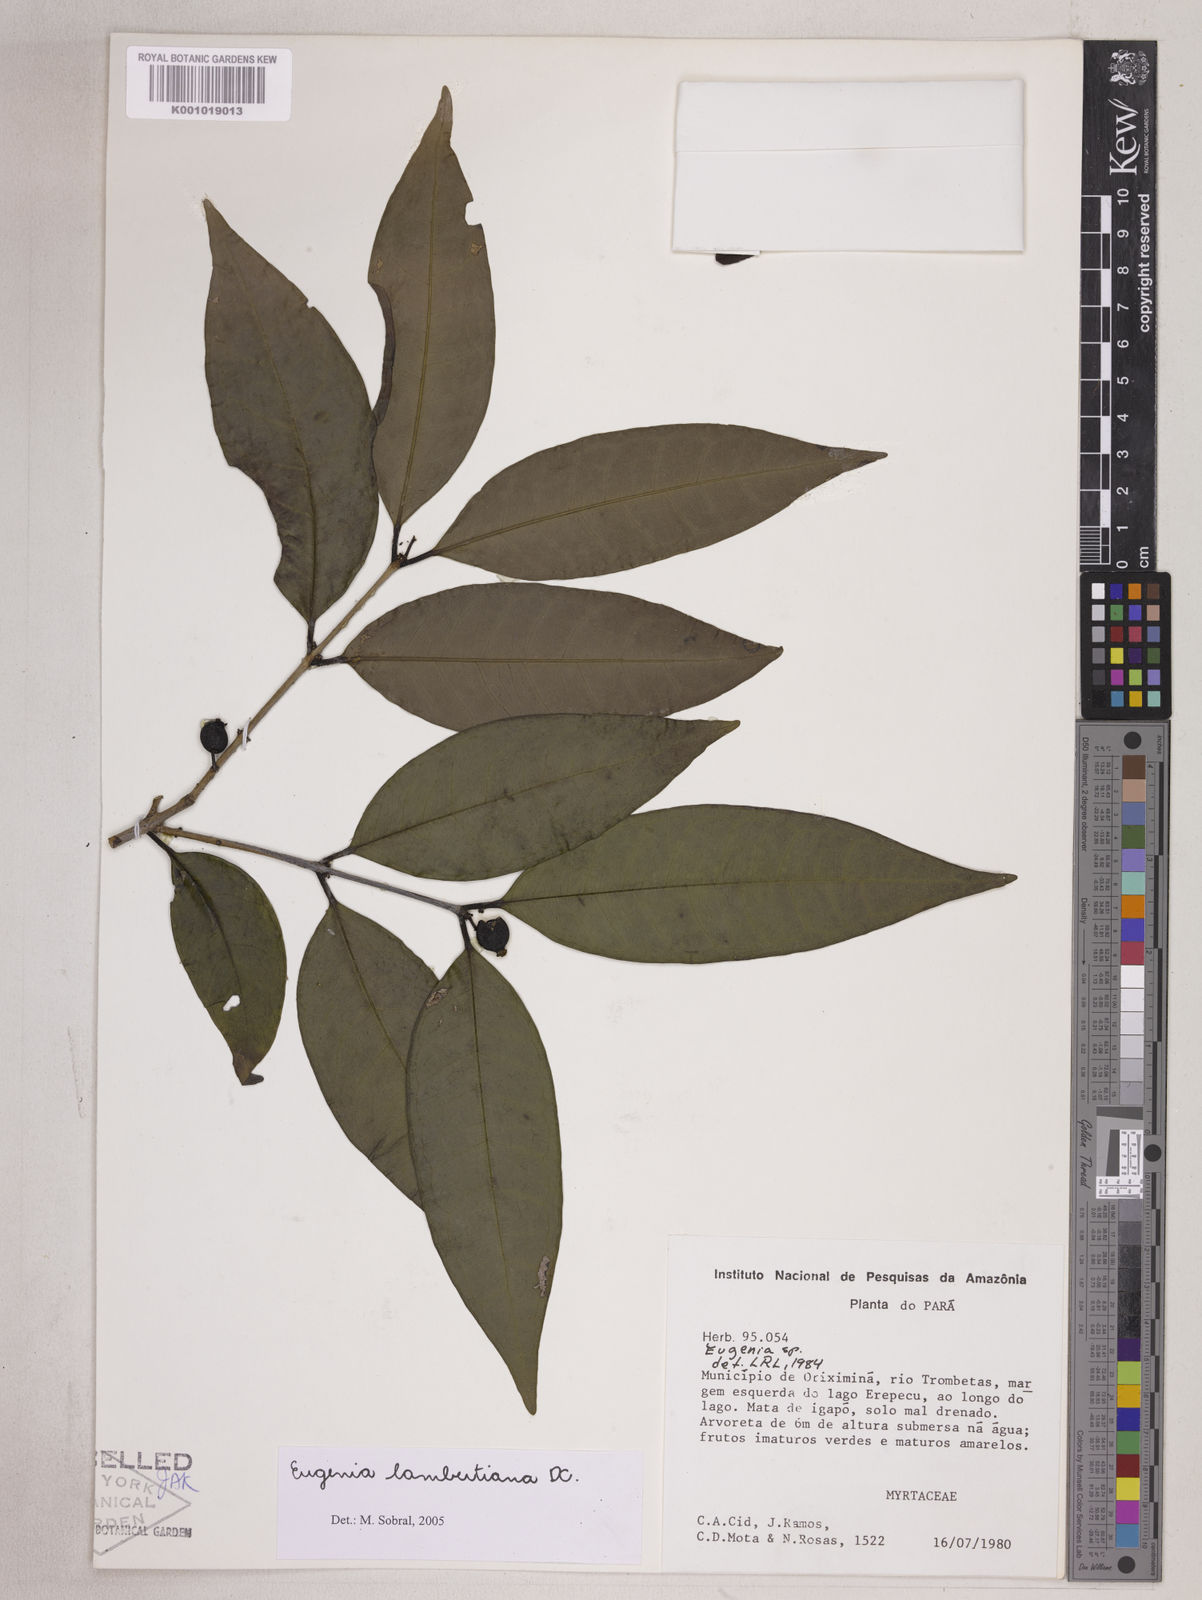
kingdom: Plantae
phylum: Tracheophyta
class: Magnoliopsida
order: Myrtales
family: Myrtaceae
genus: Eugenia
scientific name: Eugenia lambertiana
